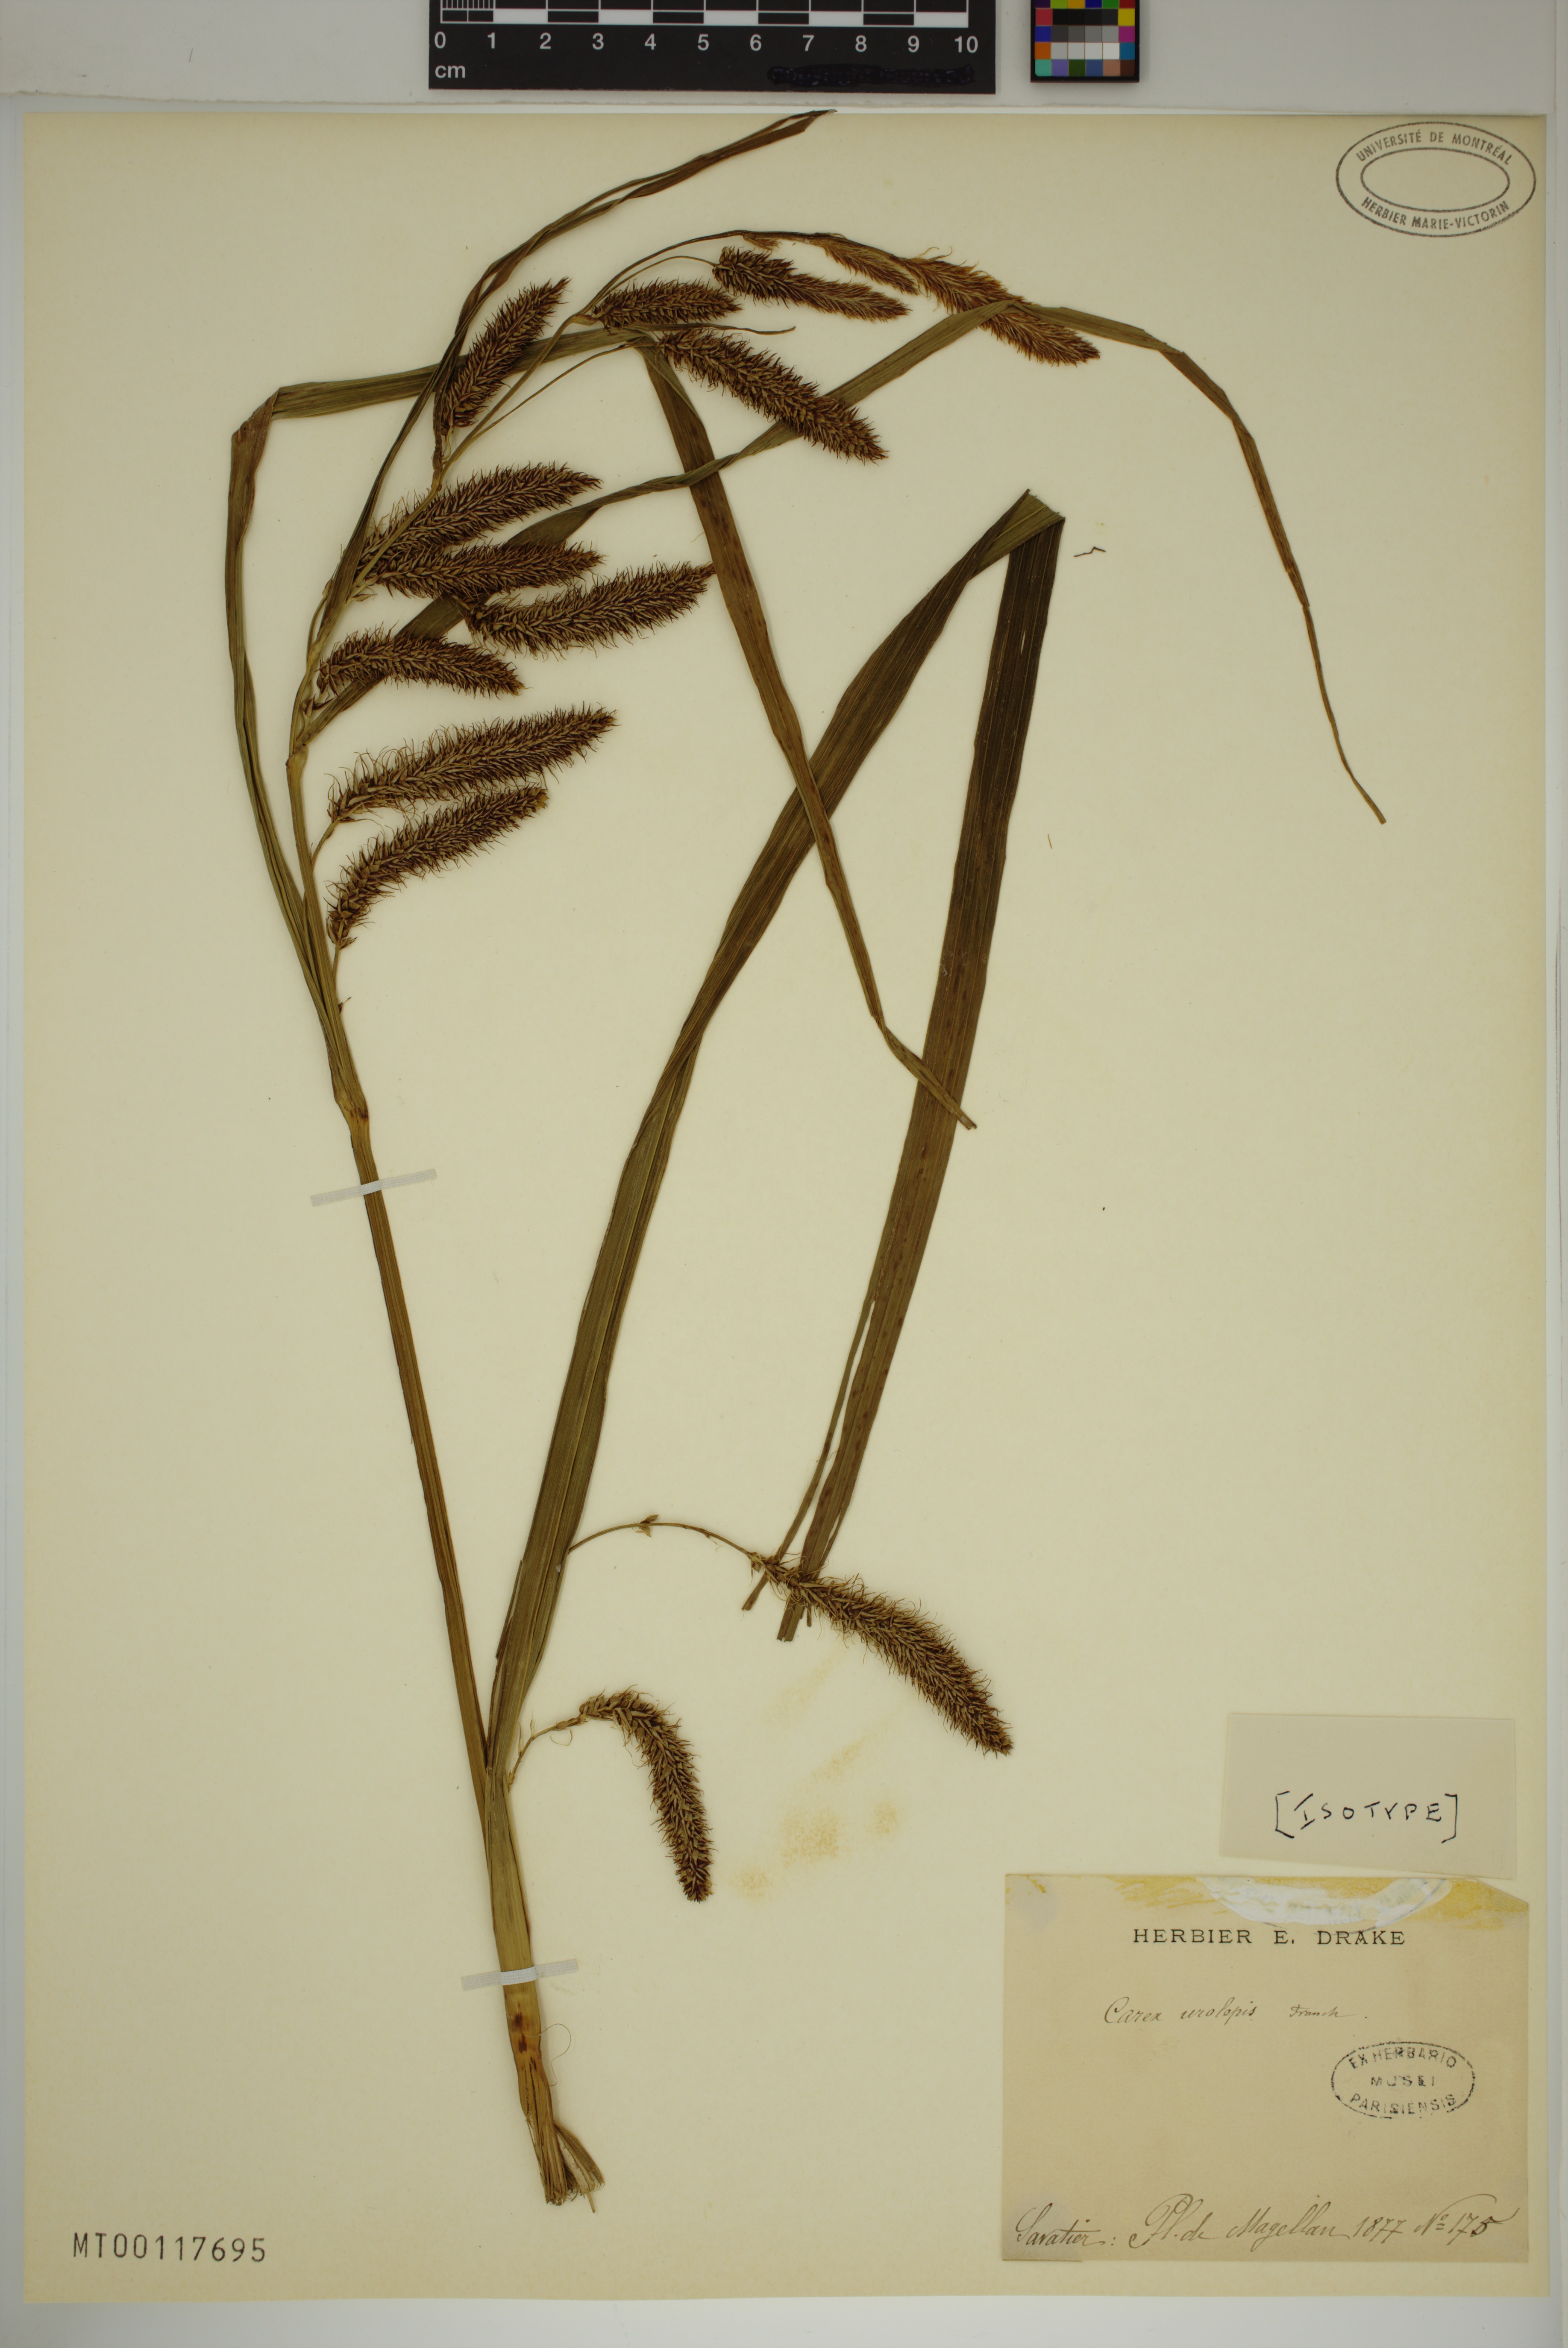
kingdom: Plantae
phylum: Tracheophyta
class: Liliopsida
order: Poales
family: Cyperaceae
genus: Carex
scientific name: Carex darwinii
